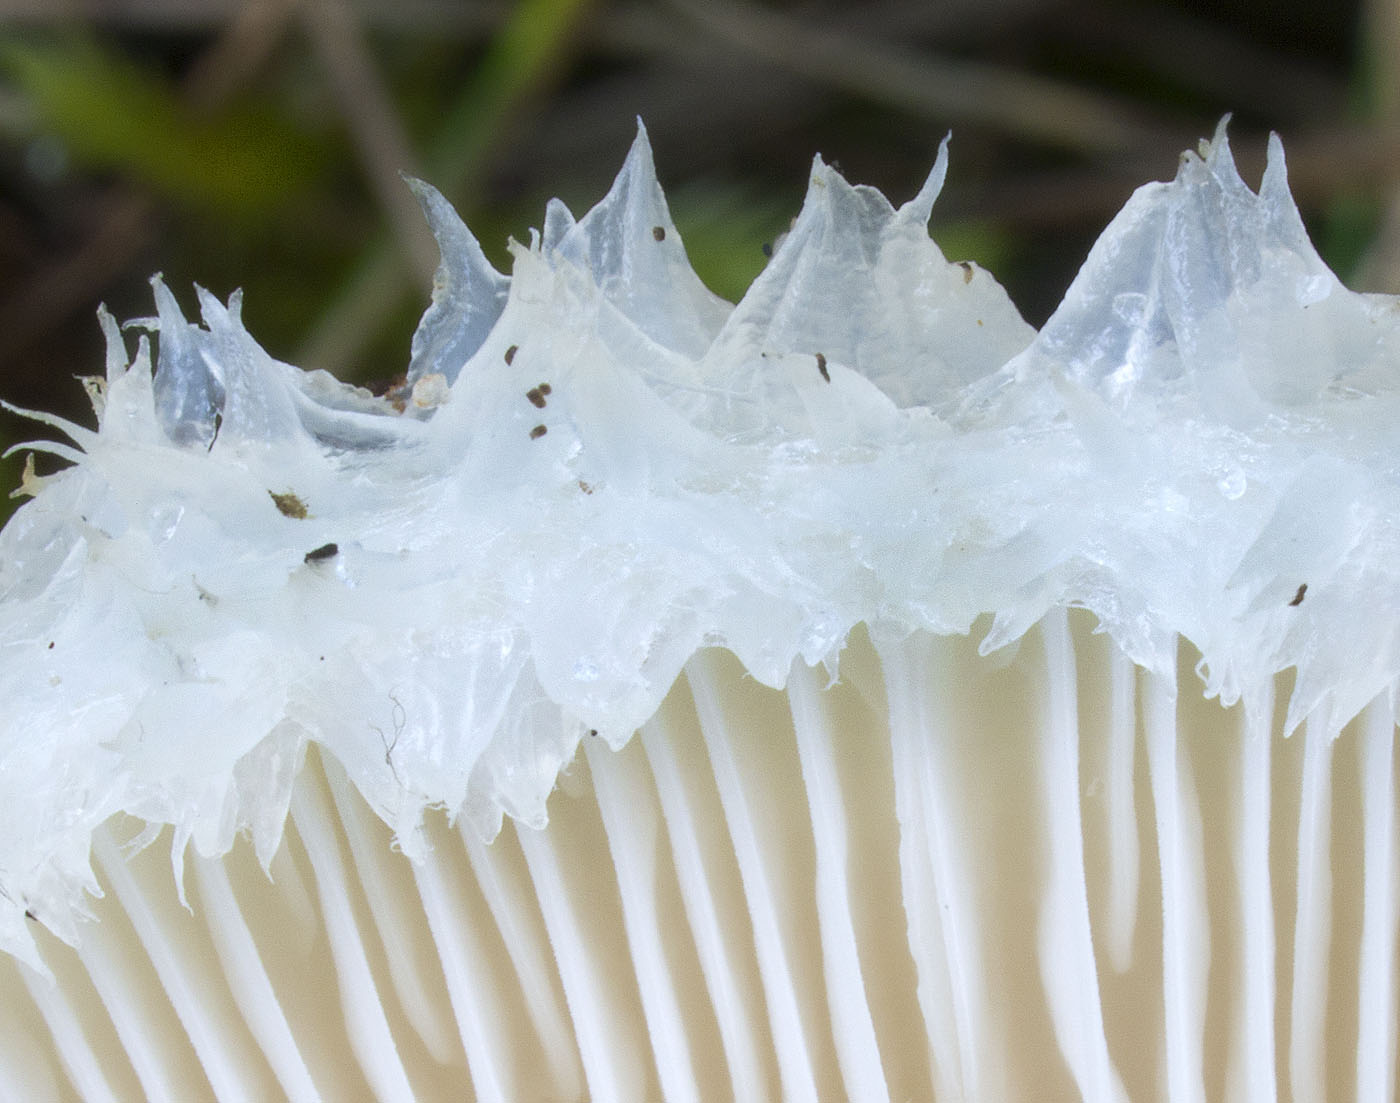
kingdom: Fungi
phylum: Basidiomycota
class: Agaricomycetes
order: Russulales
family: Russulaceae
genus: Lactarius
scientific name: Lactarius aquizonatus
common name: vandbæltet mælkehat
